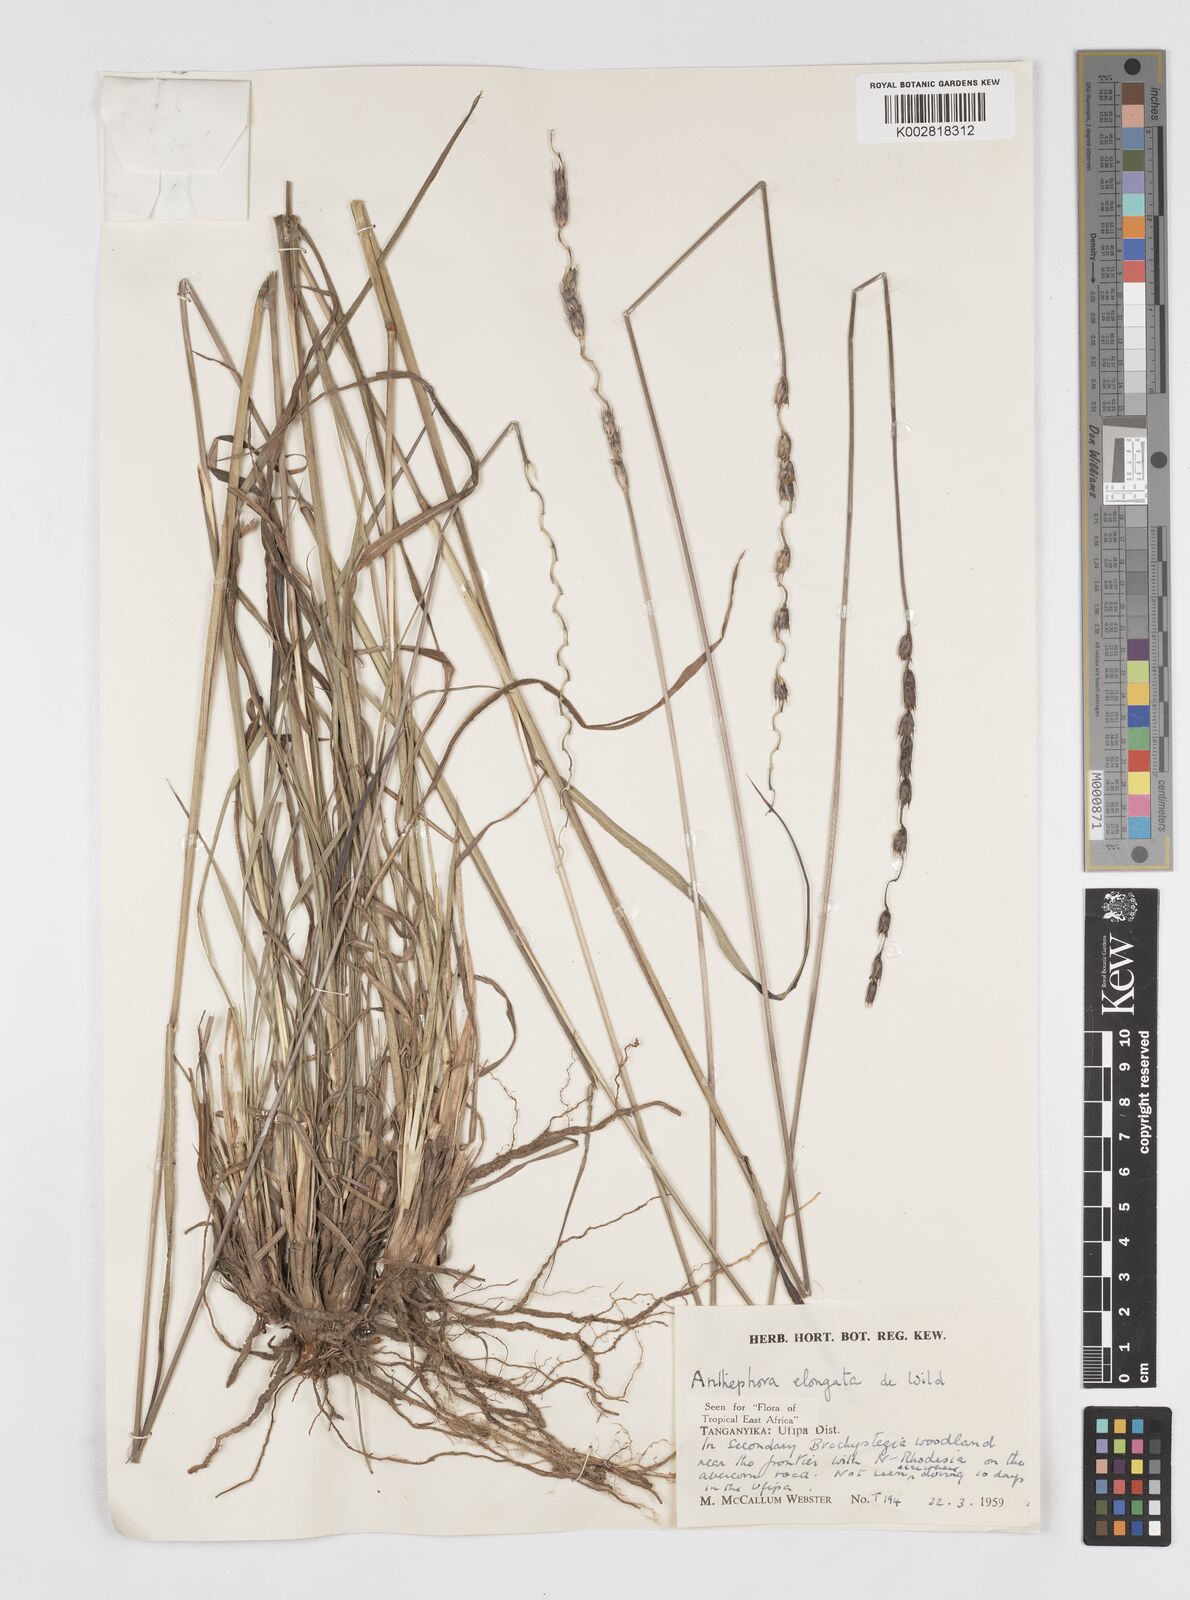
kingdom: Plantae
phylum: Tracheophyta
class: Liliopsida
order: Poales
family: Poaceae
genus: Anthephora
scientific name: Anthephora elongata
